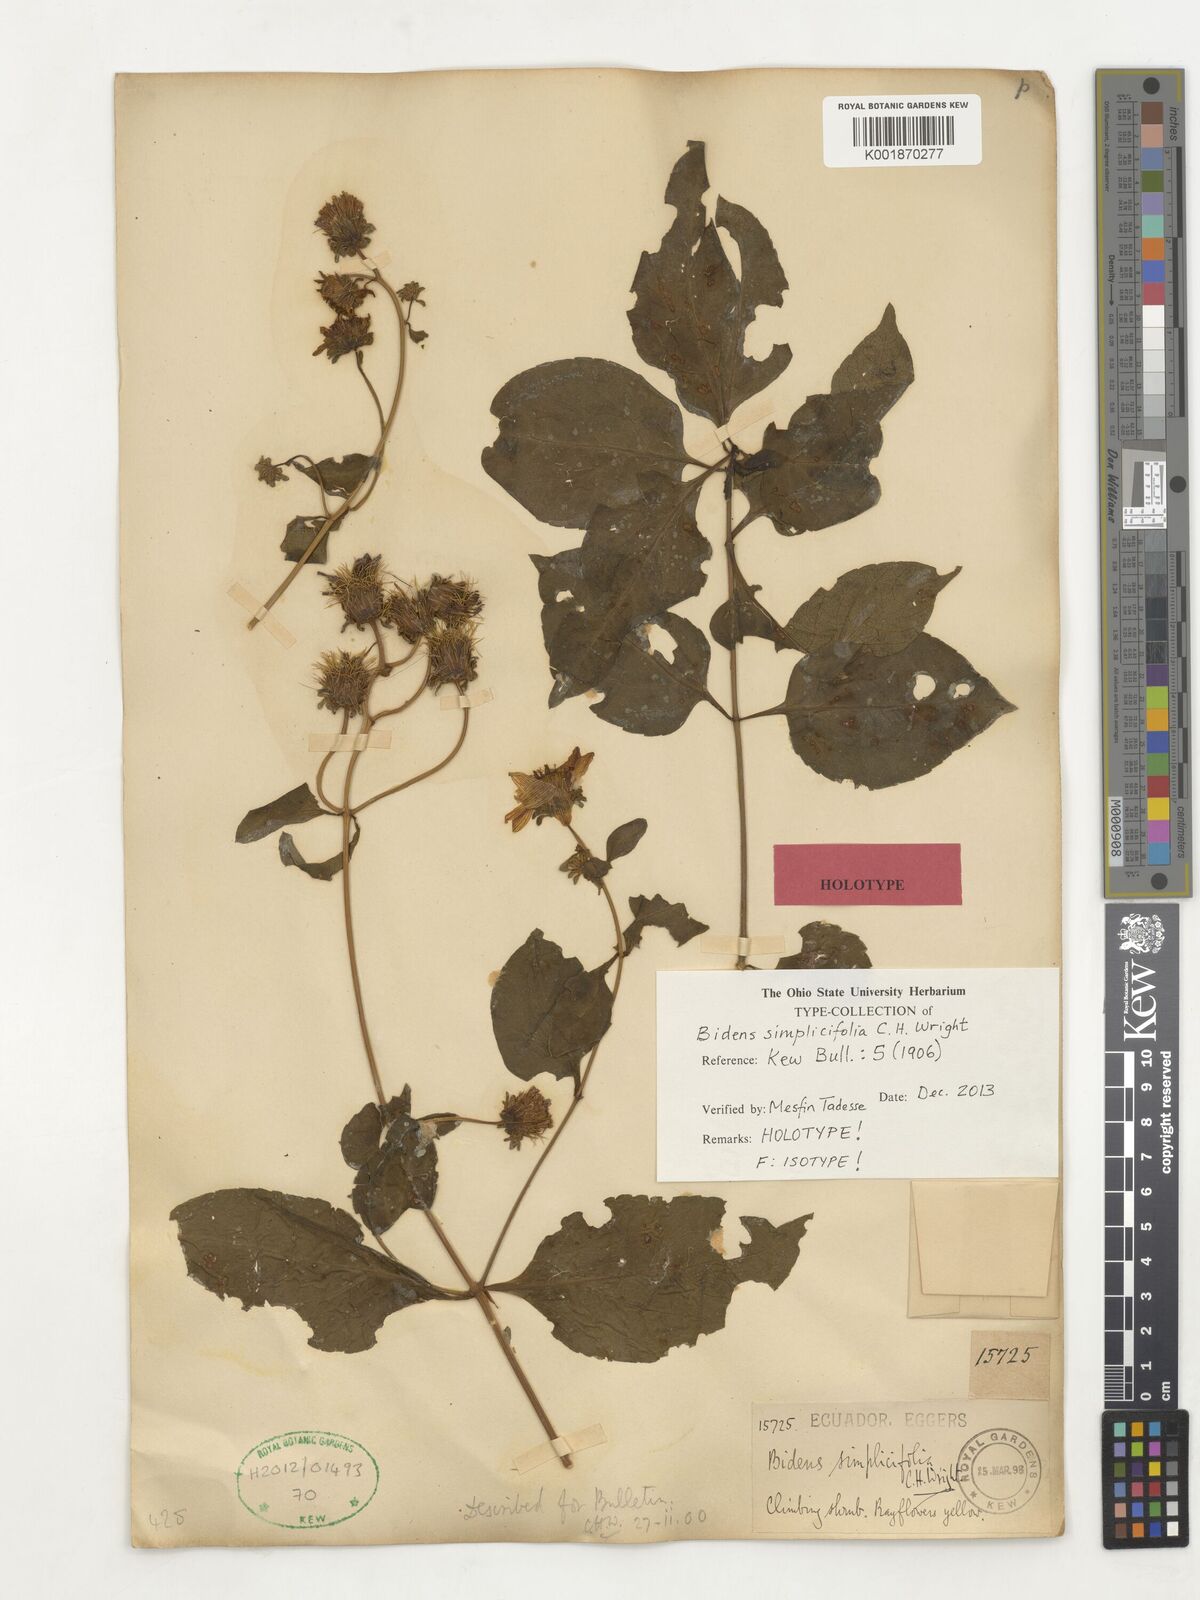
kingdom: Plantae
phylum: Tracheophyta
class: Magnoliopsida
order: Asterales
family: Asteraceae
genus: Bidens
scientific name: Bidens simplicifolia
